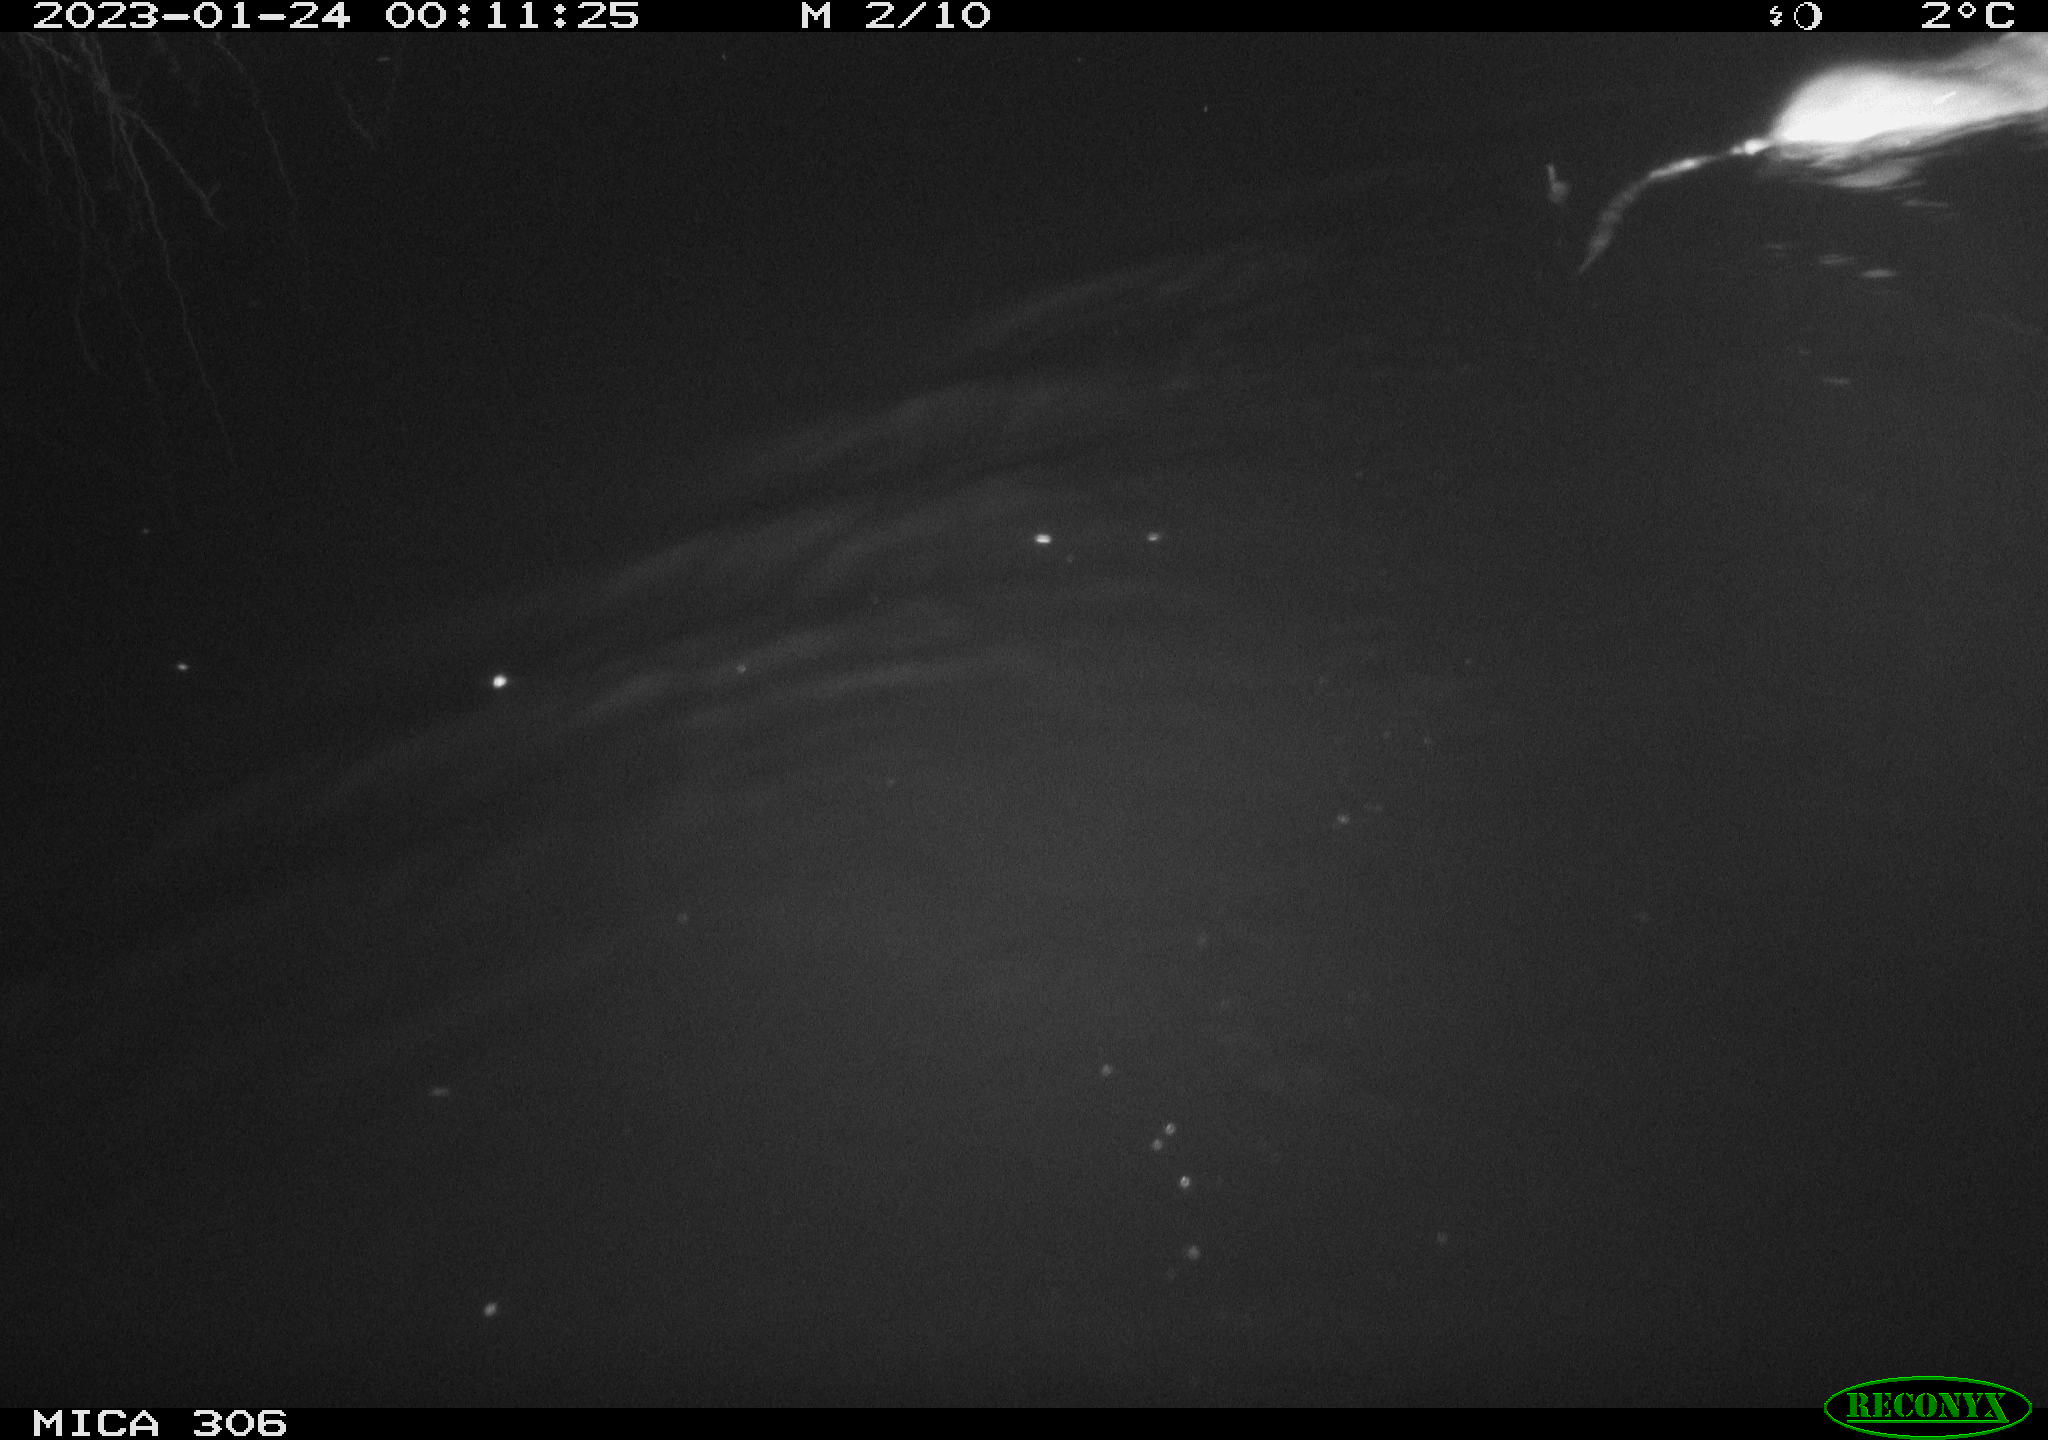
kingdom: Animalia
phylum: Chordata
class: Mammalia
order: Rodentia
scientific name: Rodentia
